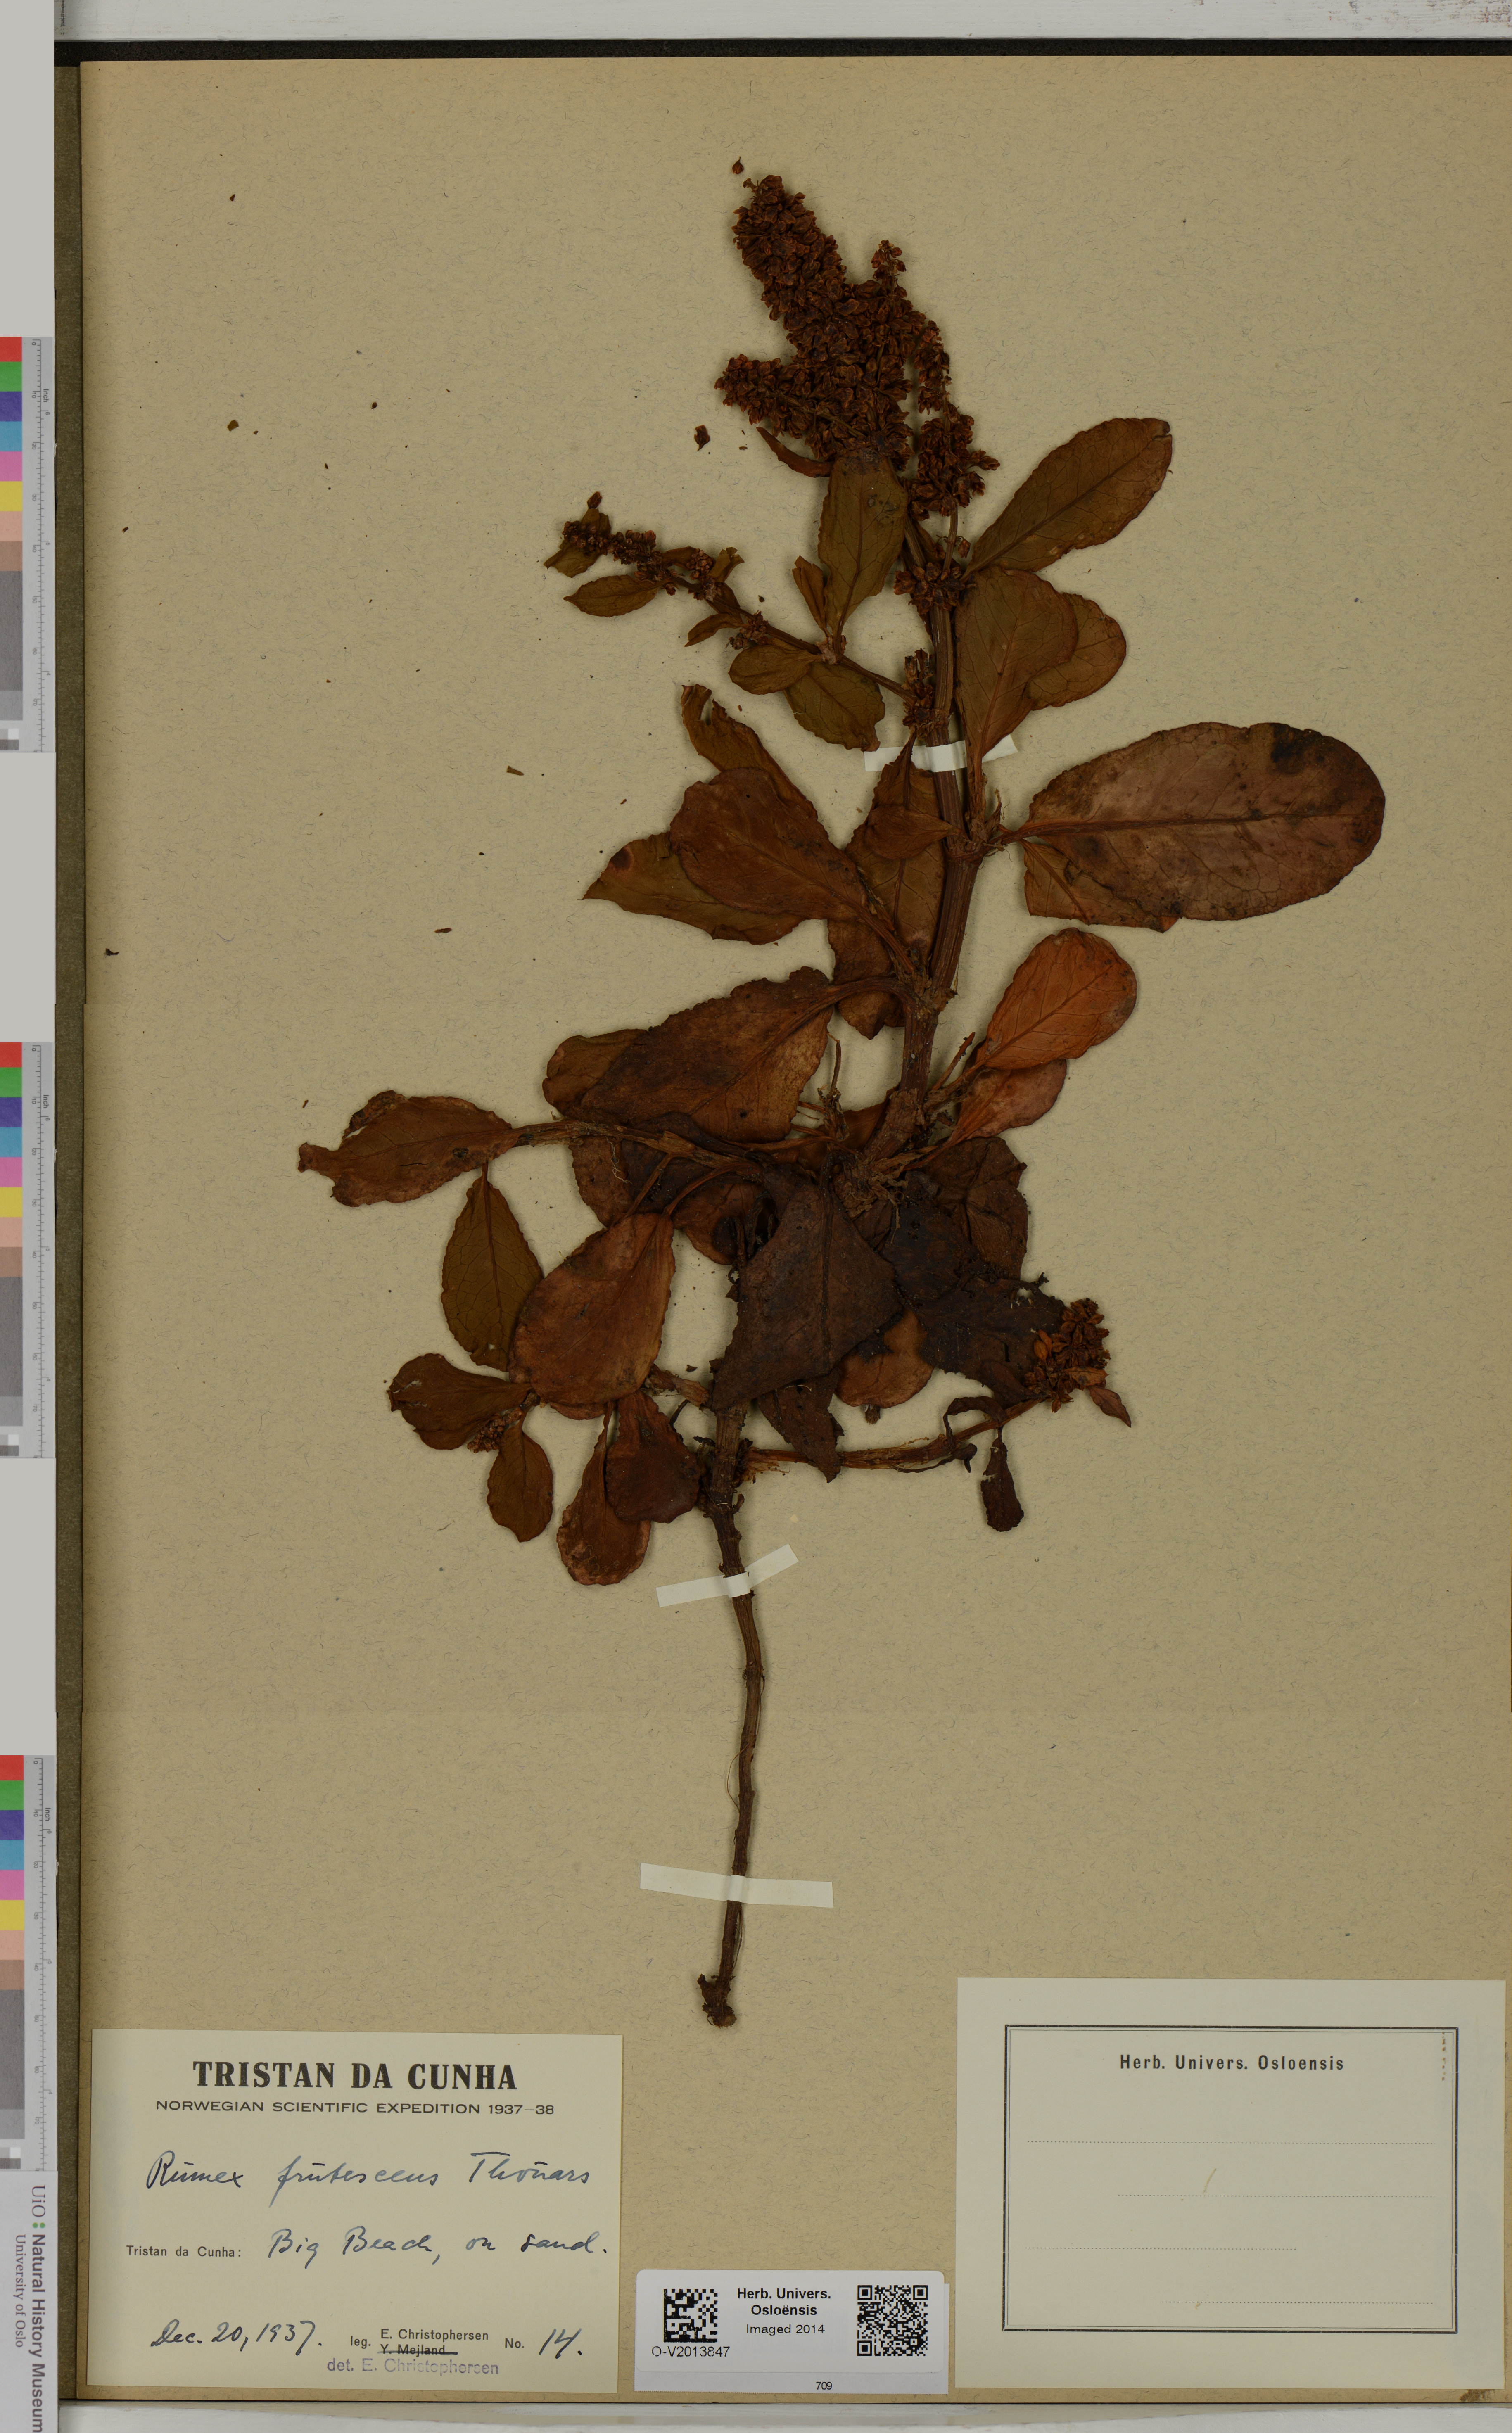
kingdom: Plantae
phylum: Tracheophyta
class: Magnoliopsida
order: Caryophyllales
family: Polygonaceae
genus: Rumex
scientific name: Rumex frutescens
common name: Argentine dock
